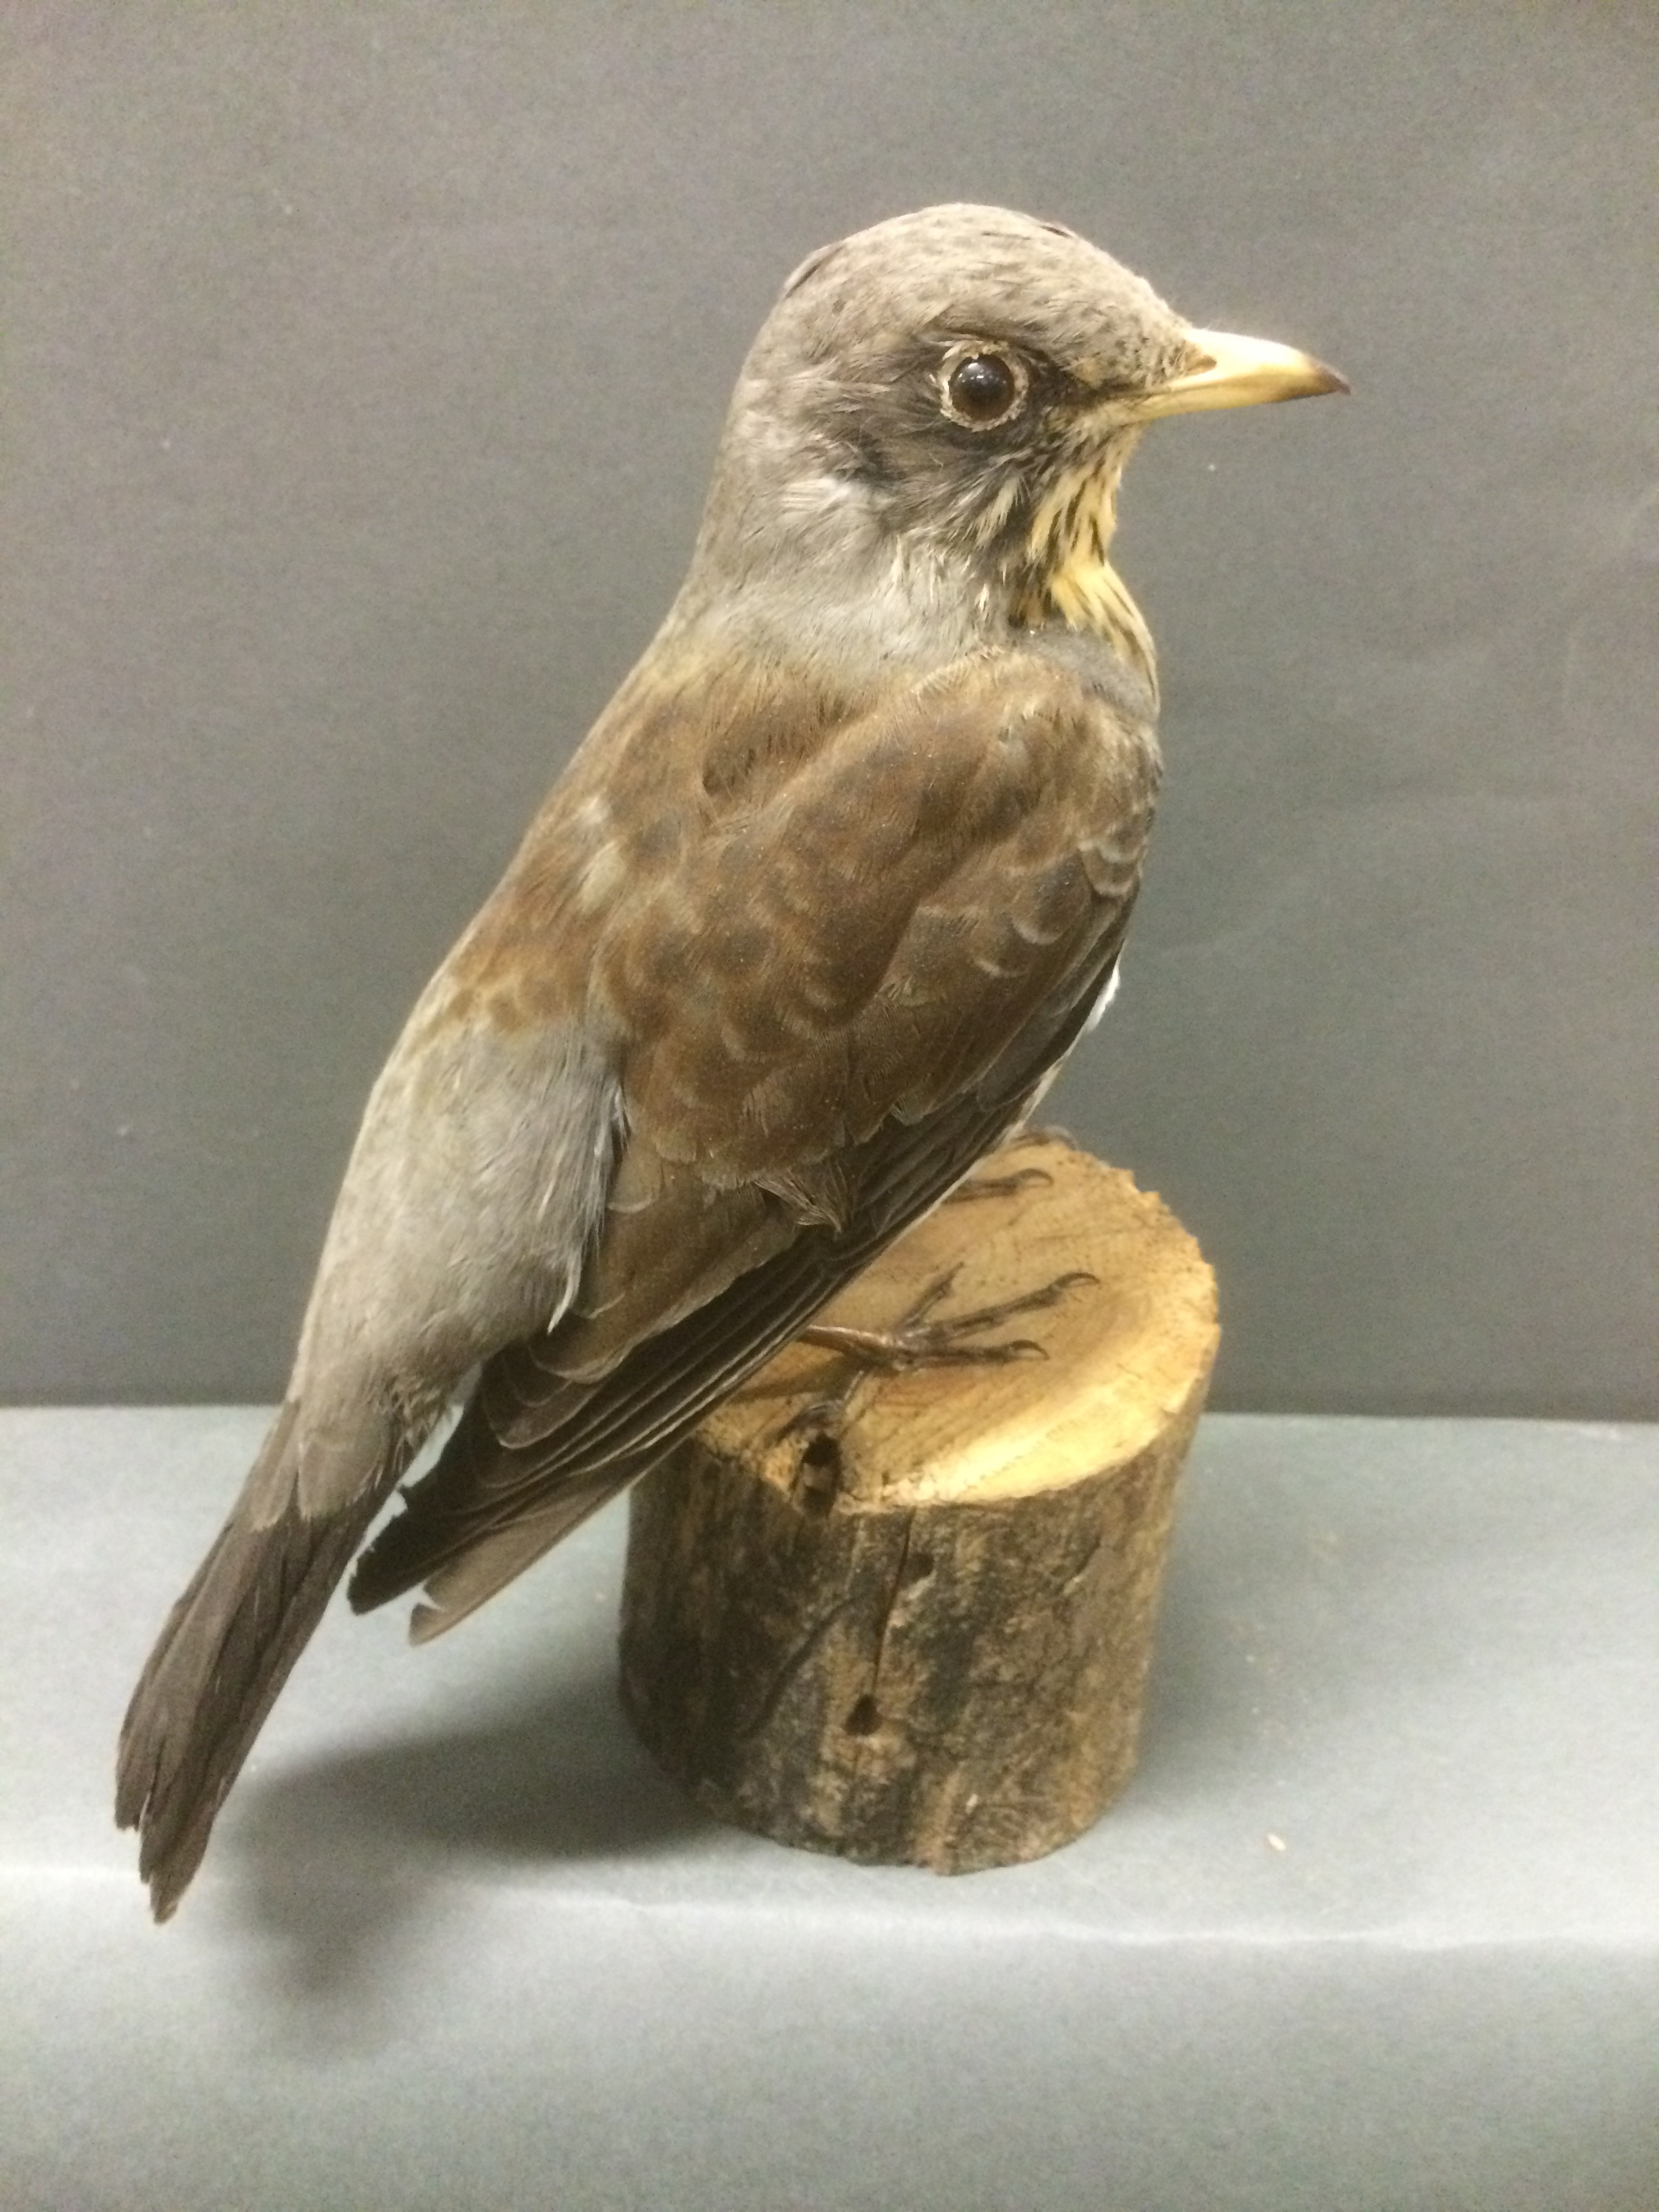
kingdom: Animalia
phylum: Chordata
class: Aves
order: Passeriformes
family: Turdidae
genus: Turdus
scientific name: Turdus pilaris
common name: Fieldfare
